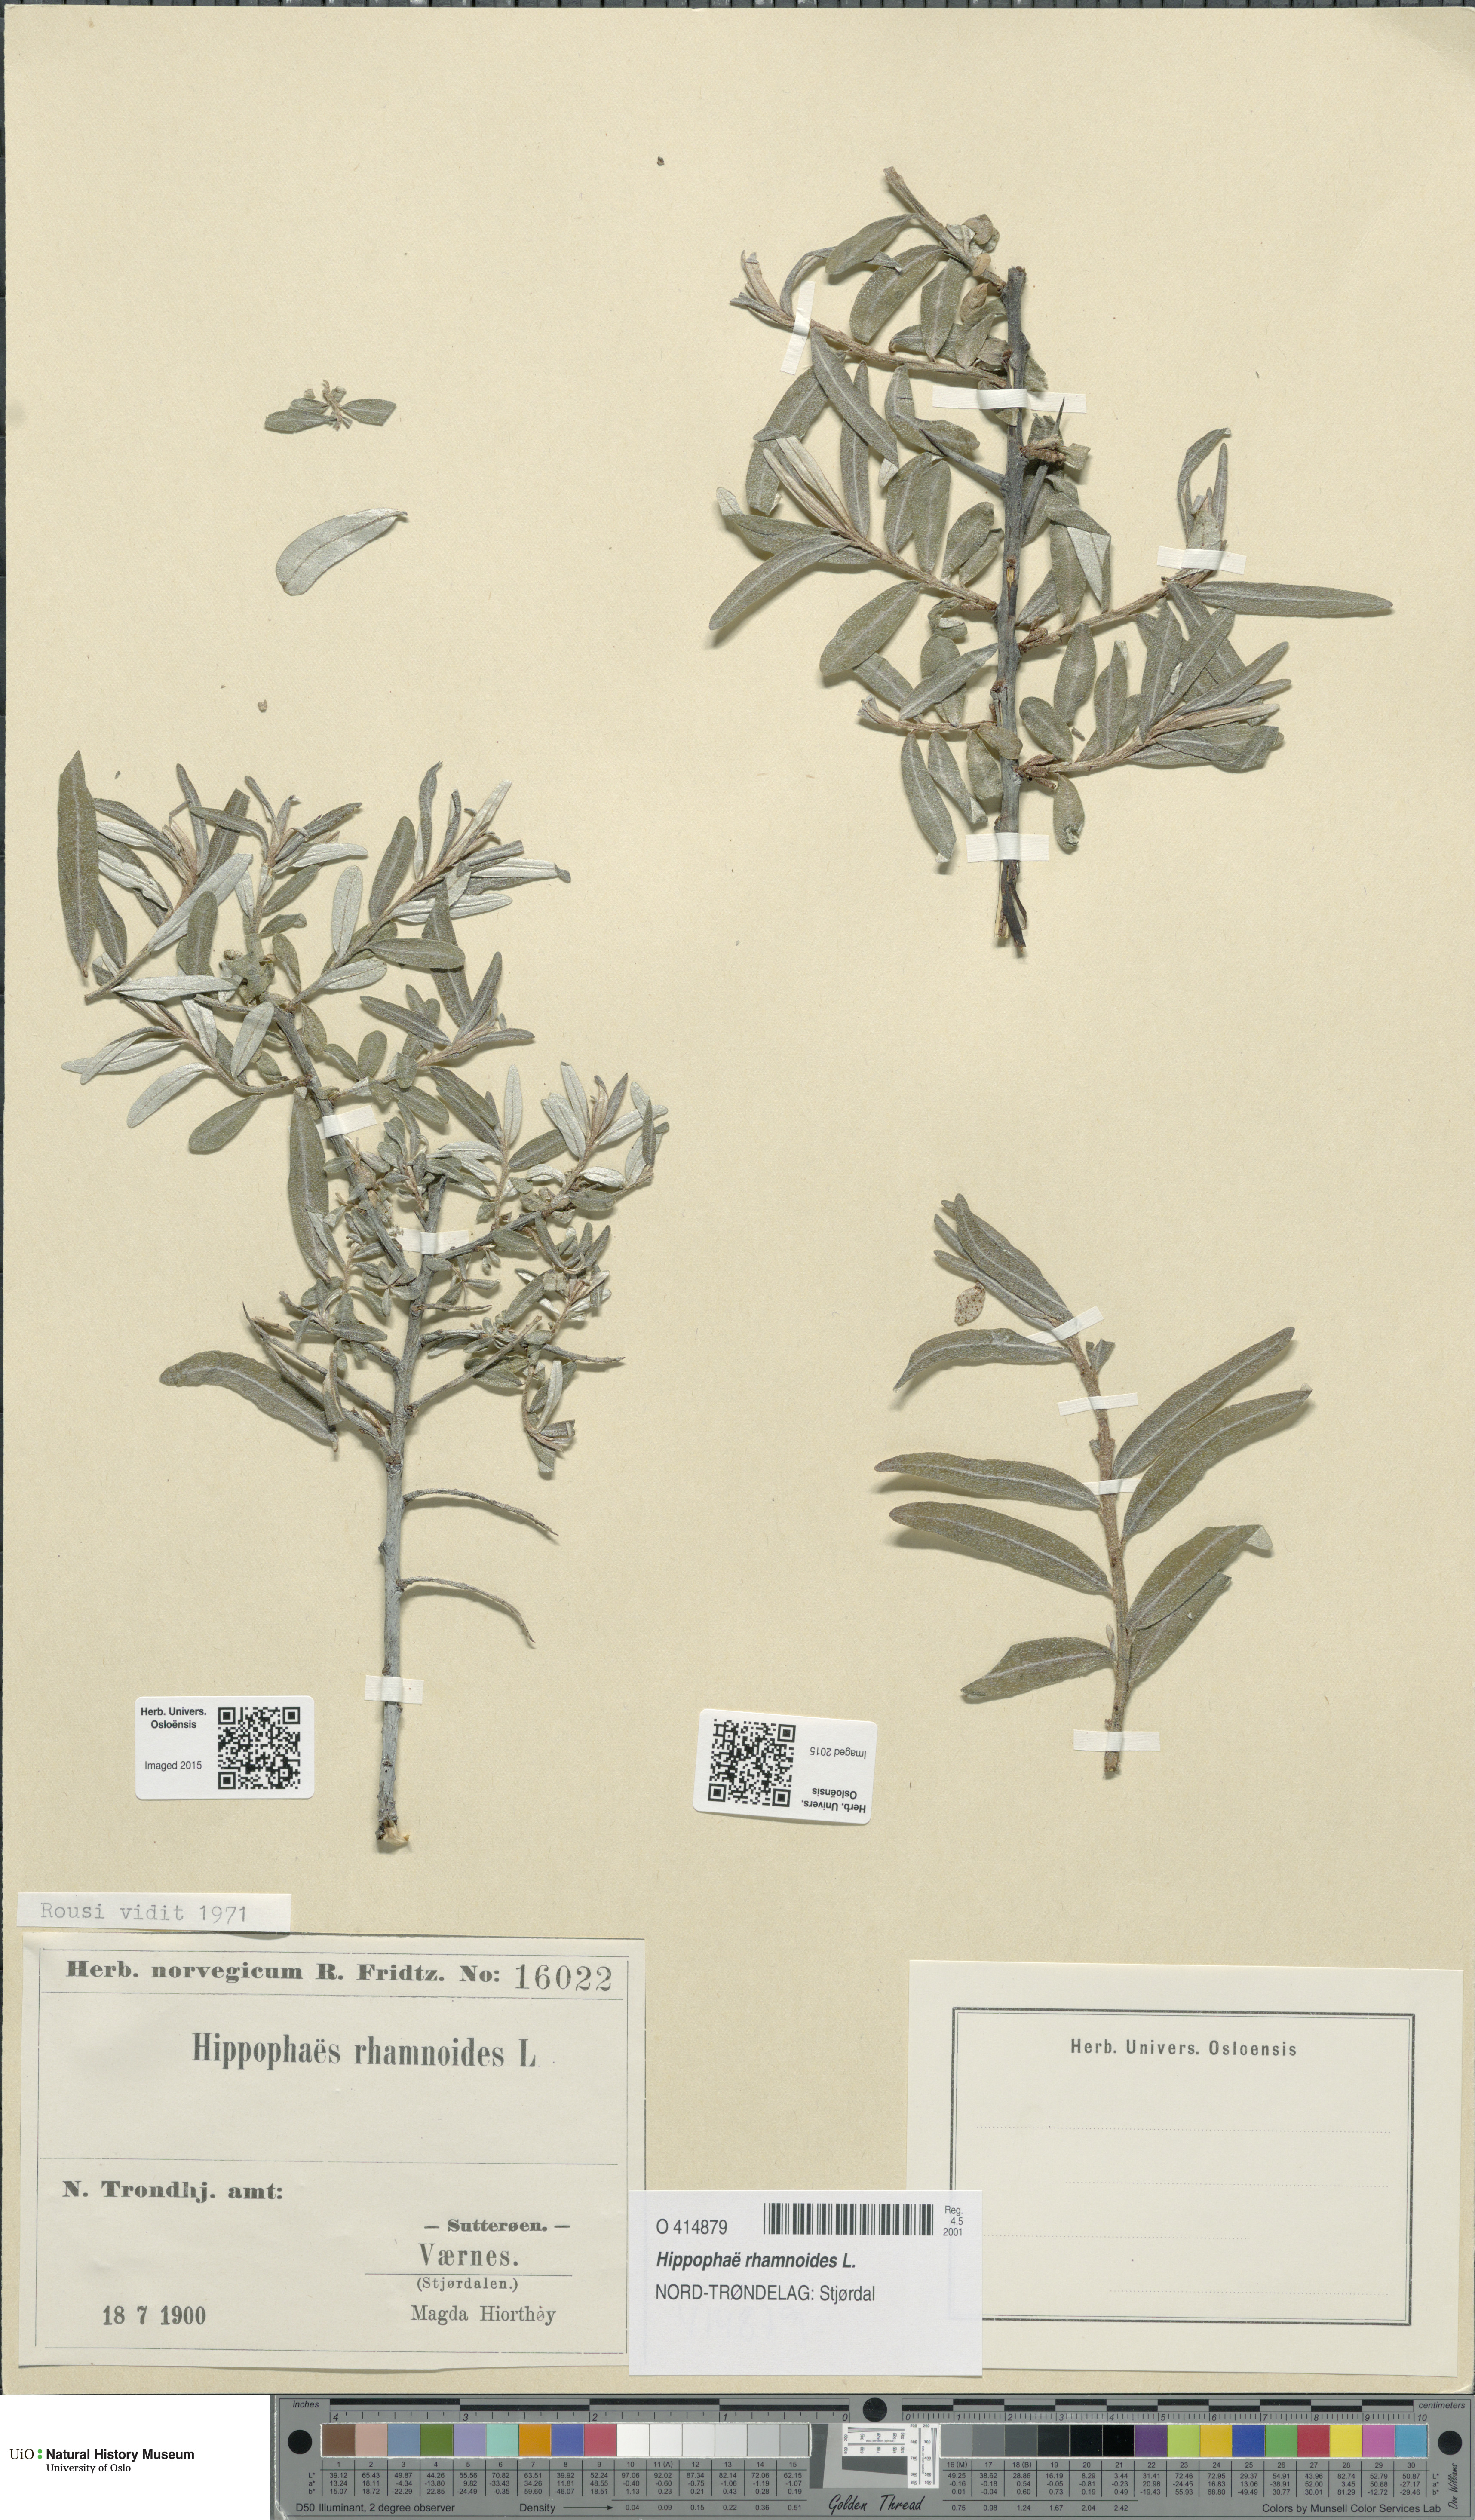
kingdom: Plantae
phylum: Tracheophyta
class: Magnoliopsida
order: Rosales
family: Elaeagnaceae
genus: Hippophae
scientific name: Hippophae rhamnoides
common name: Sea-buckthorn
